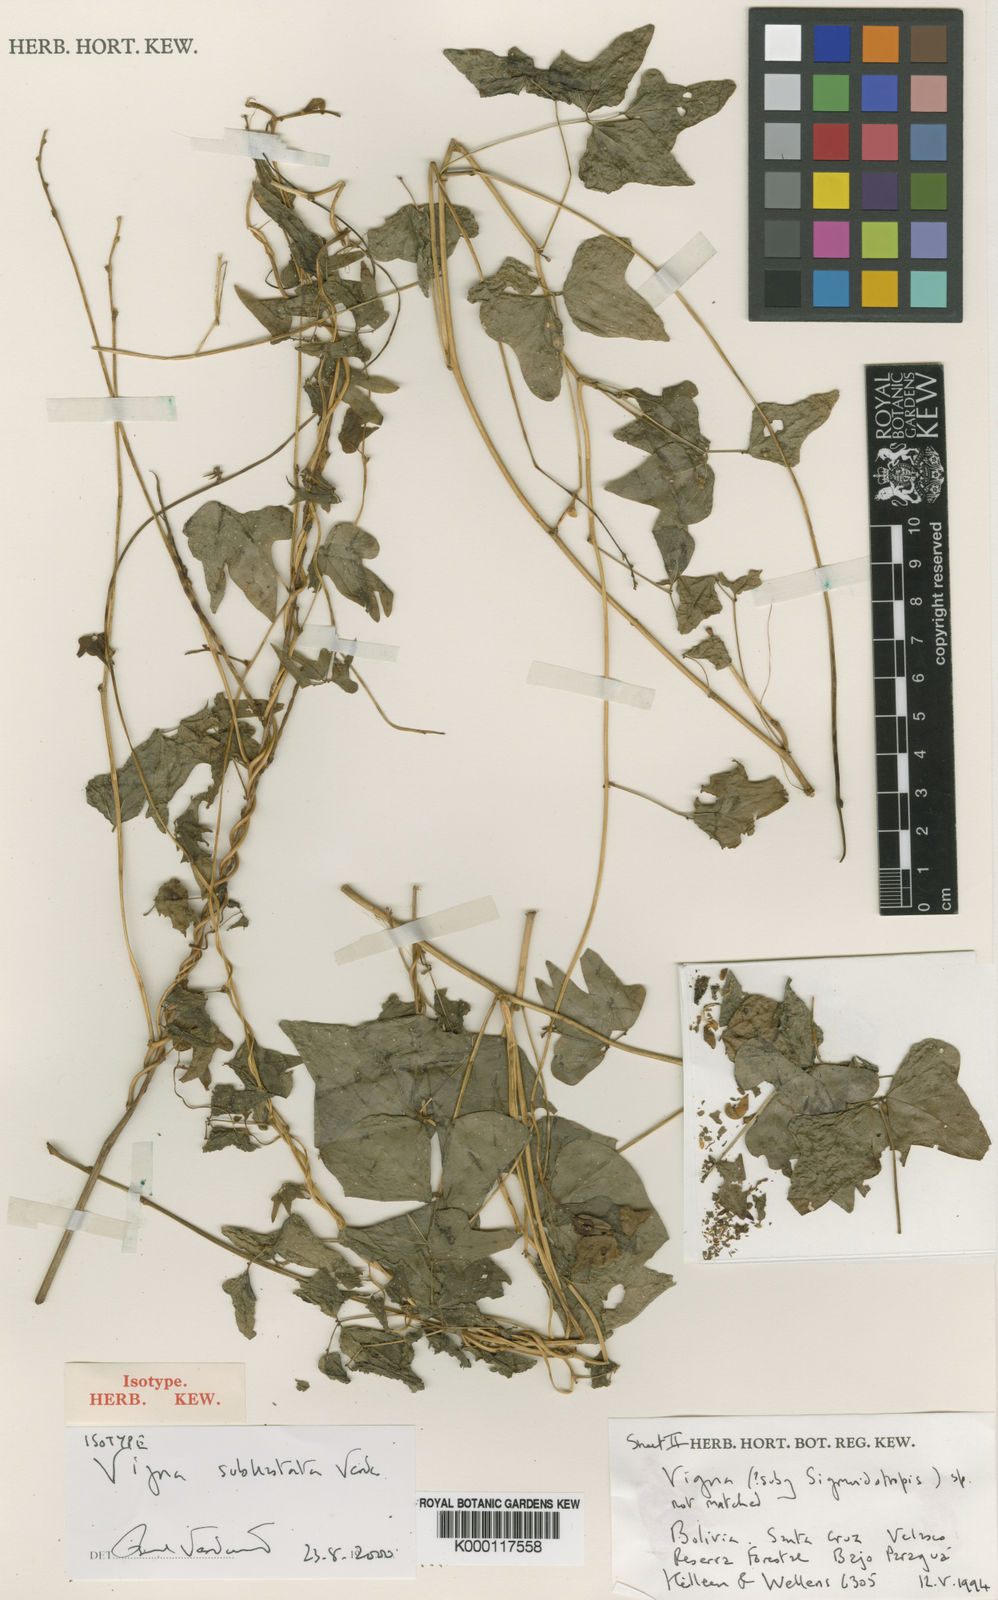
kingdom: Plantae
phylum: Tracheophyta
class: Magnoliopsida
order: Fabales
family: Fabaceae
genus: Ancistrotropis
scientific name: Ancistrotropis subhastata
